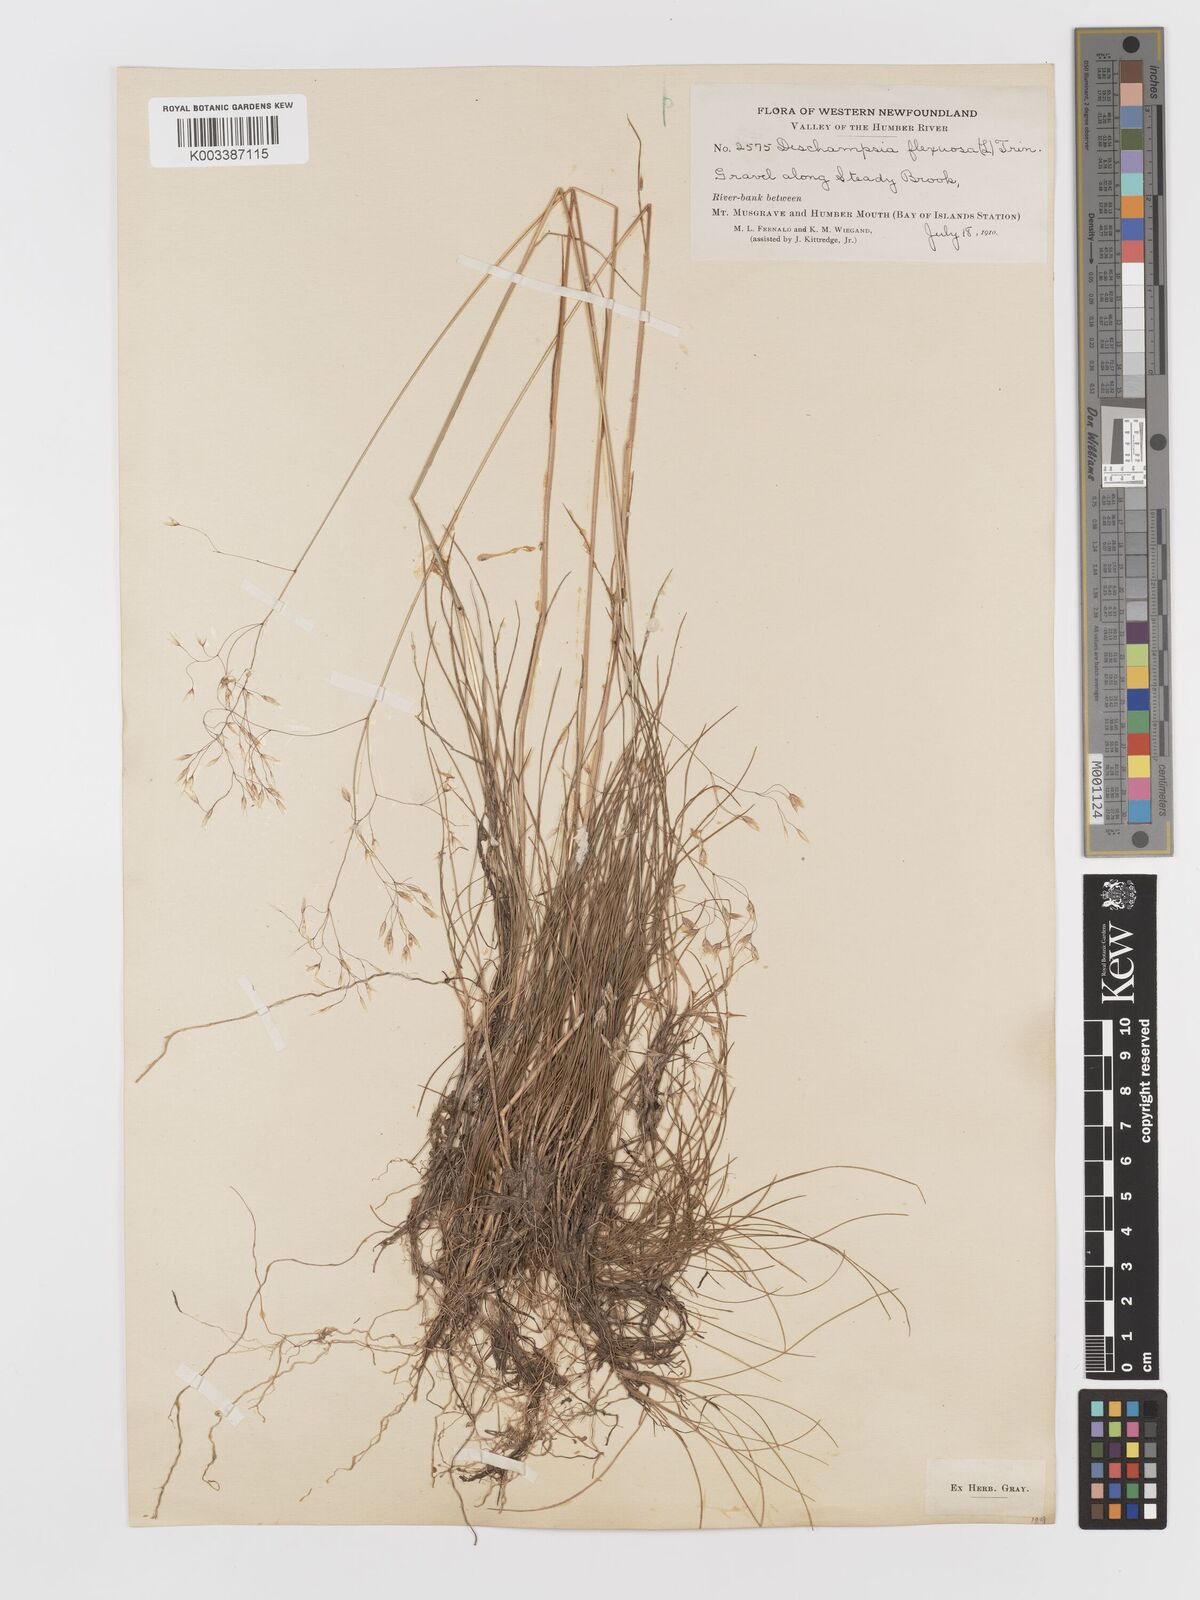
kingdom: Plantae
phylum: Tracheophyta
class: Liliopsida
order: Poales
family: Poaceae
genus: Avenella
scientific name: Avenella flexuosa
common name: Wavy hairgrass
